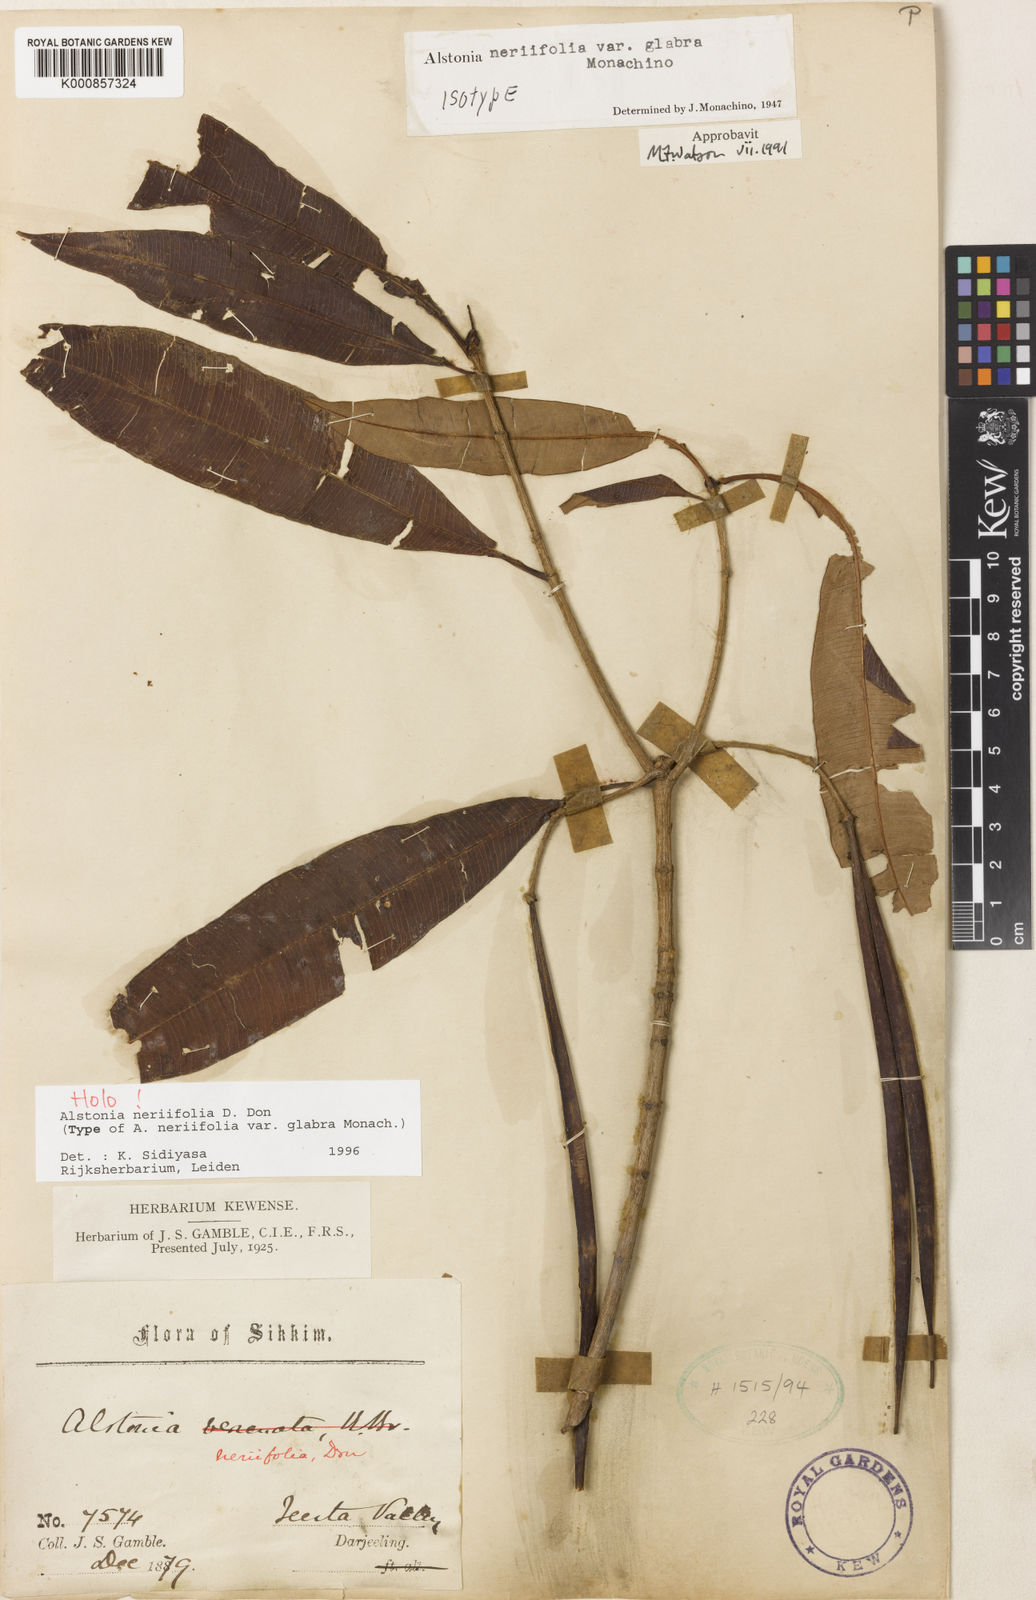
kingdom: Plantae
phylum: Tracheophyta
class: Magnoliopsida
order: Gentianales
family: Apocynaceae
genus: Alstonia
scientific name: Alstonia neriifolia
